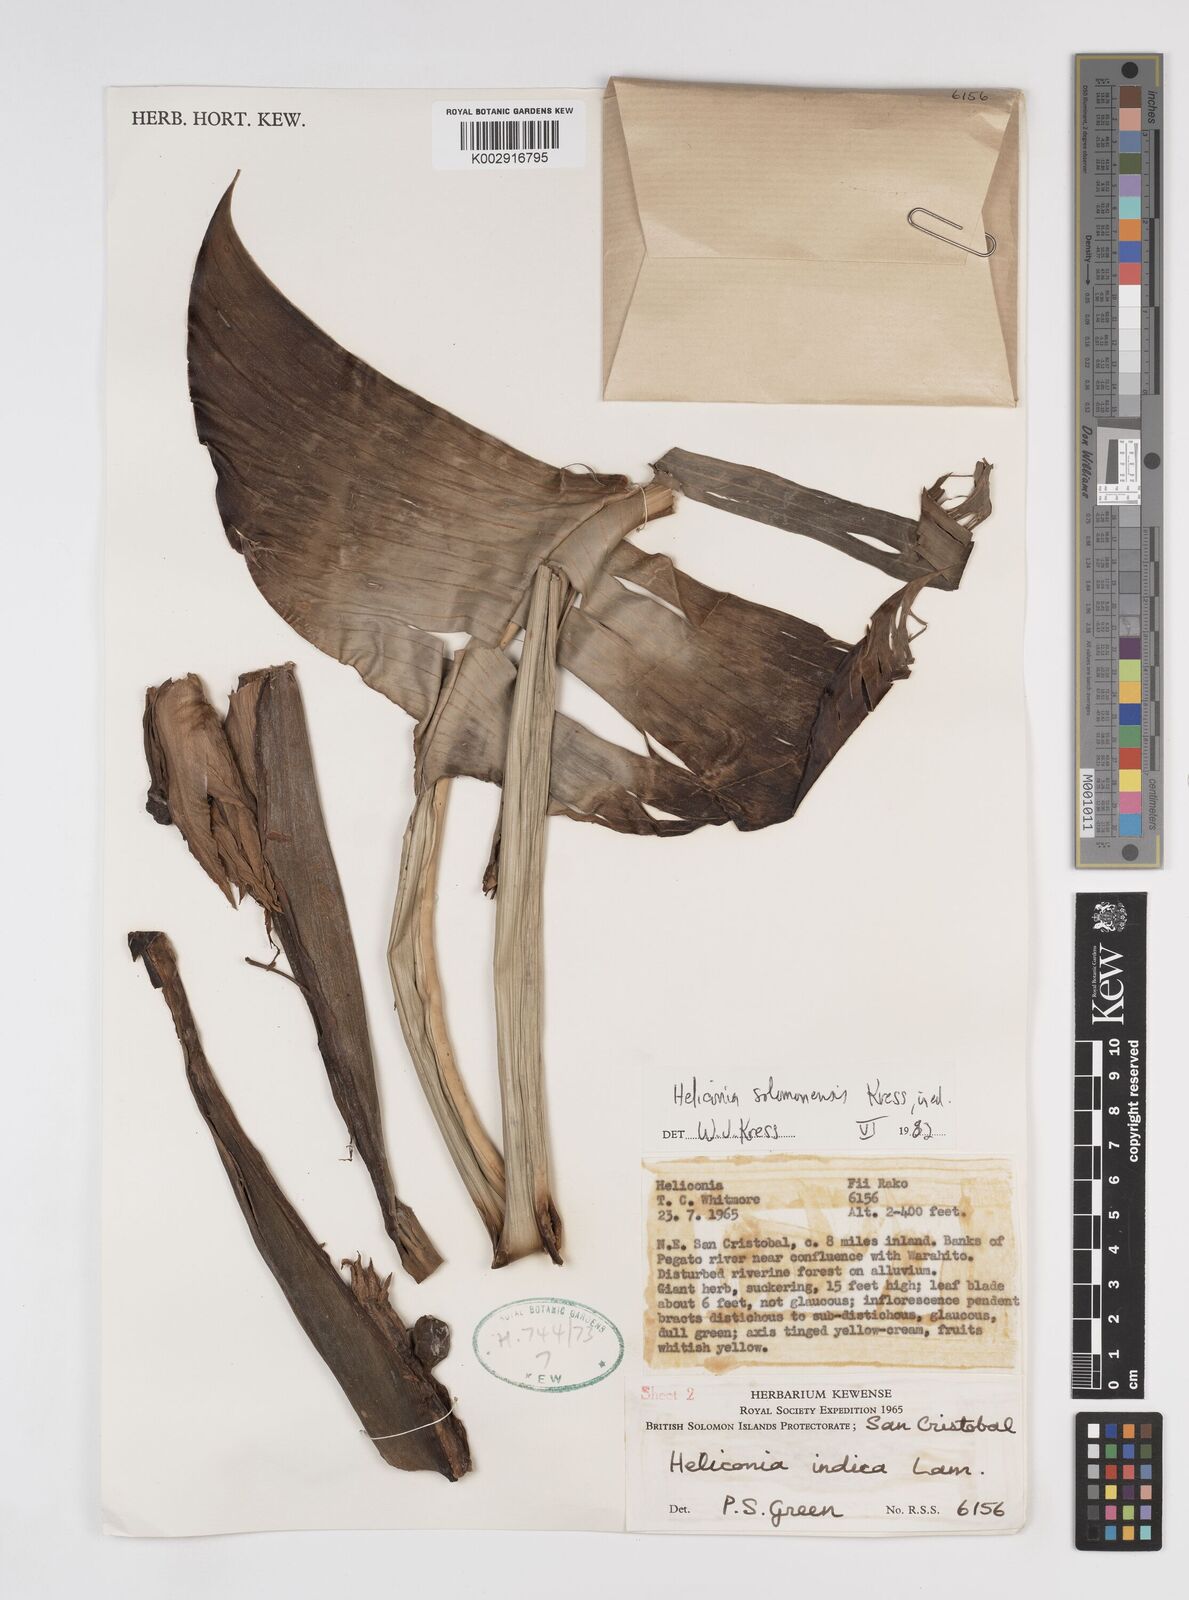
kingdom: Plantae
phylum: Tracheophyta
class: Liliopsida
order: Zingiberales
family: Heliconiaceae
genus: Heliconia
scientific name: Heliconia solomonensis
